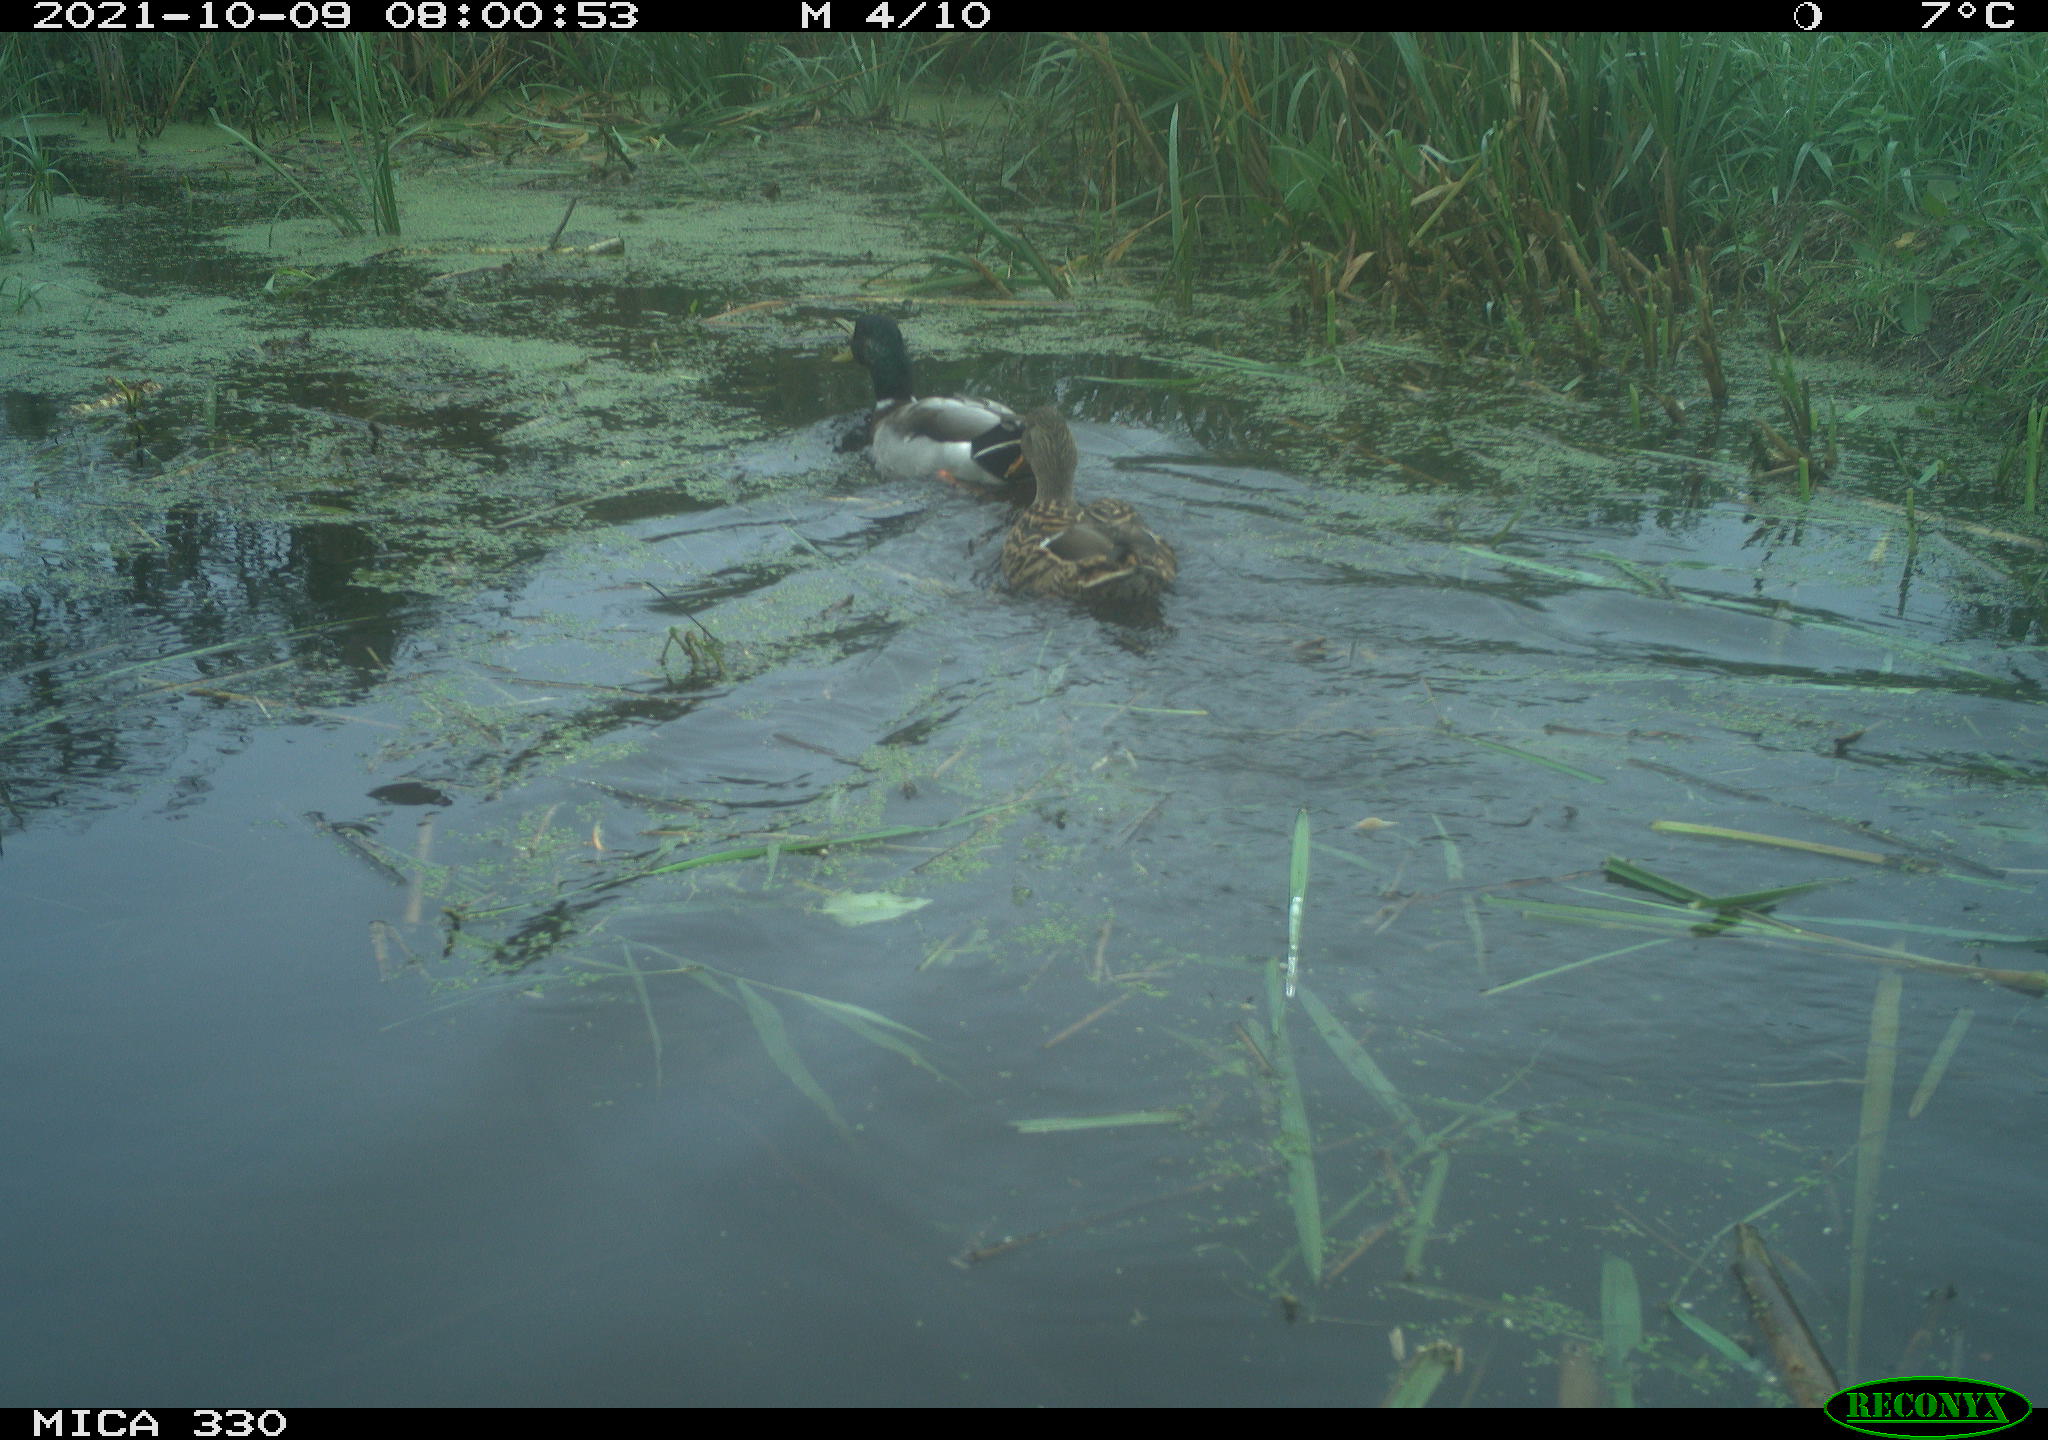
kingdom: Animalia
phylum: Chordata
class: Aves
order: Anseriformes
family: Anatidae
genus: Anas
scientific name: Anas platyrhynchos
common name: Mallard
